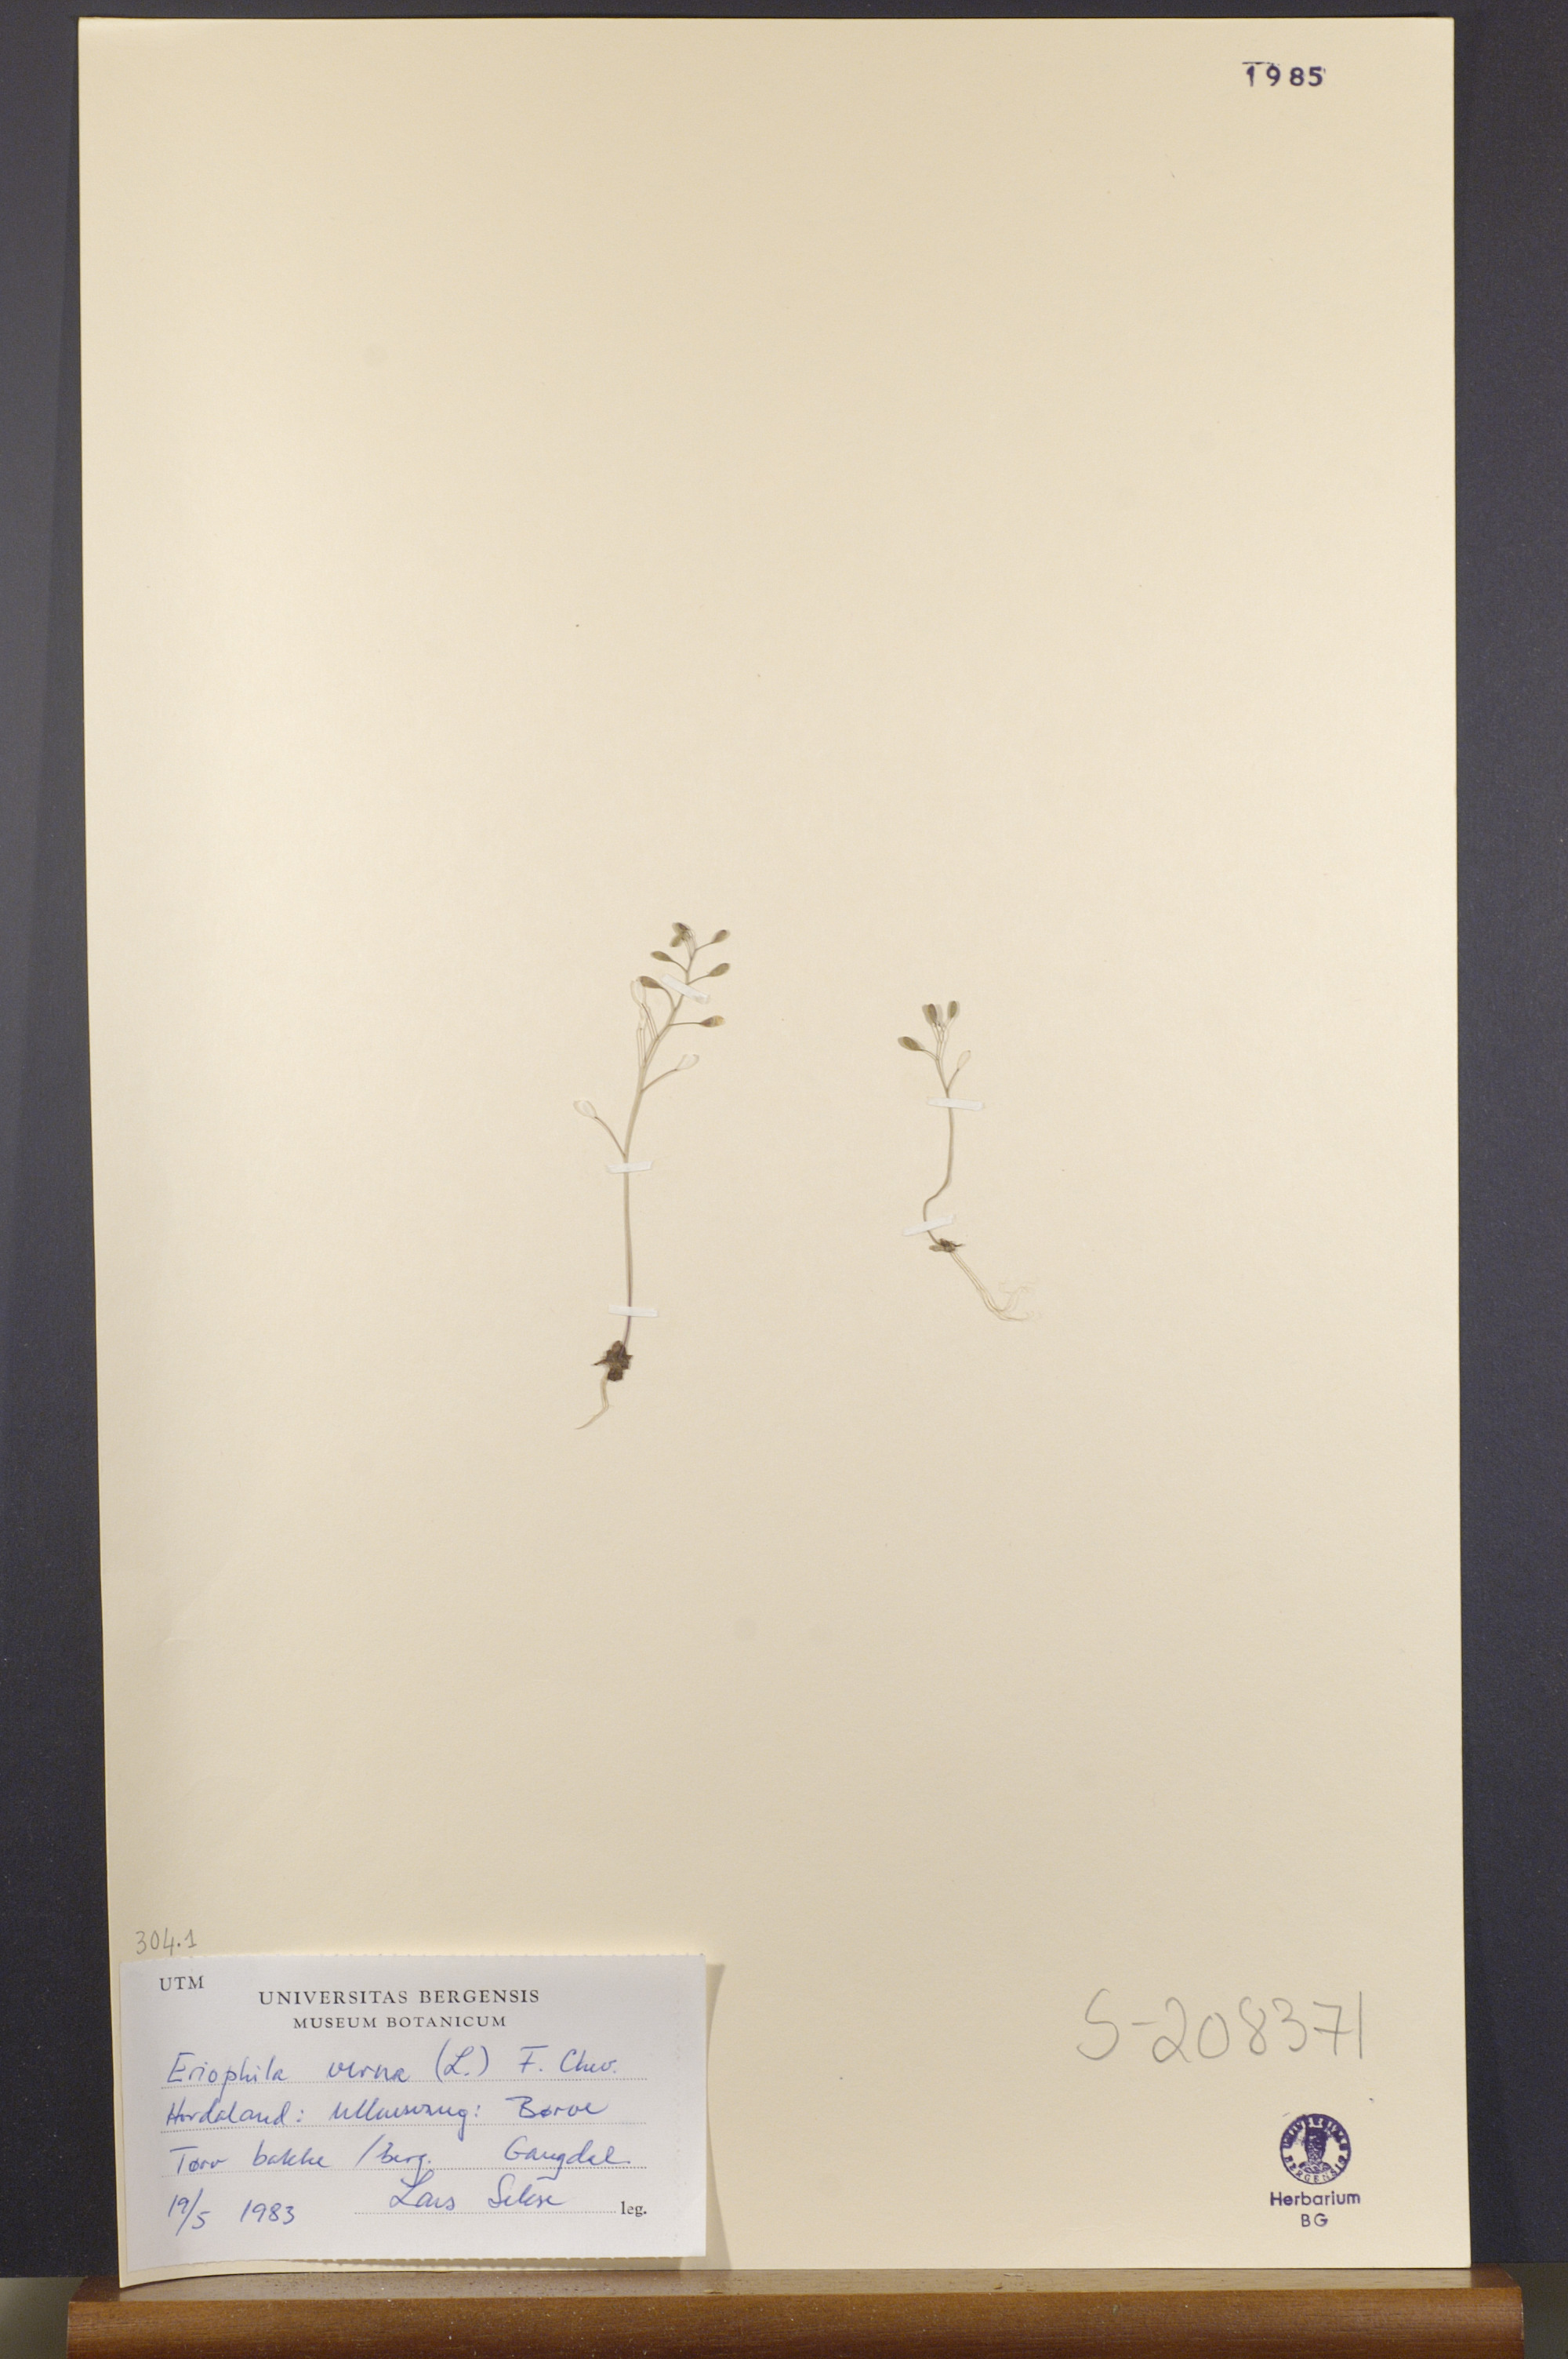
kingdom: Plantae
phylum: Tracheophyta
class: Magnoliopsida
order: Brassicales
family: Brassicaceae
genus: Draba
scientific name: Draba verna
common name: Spring draba
